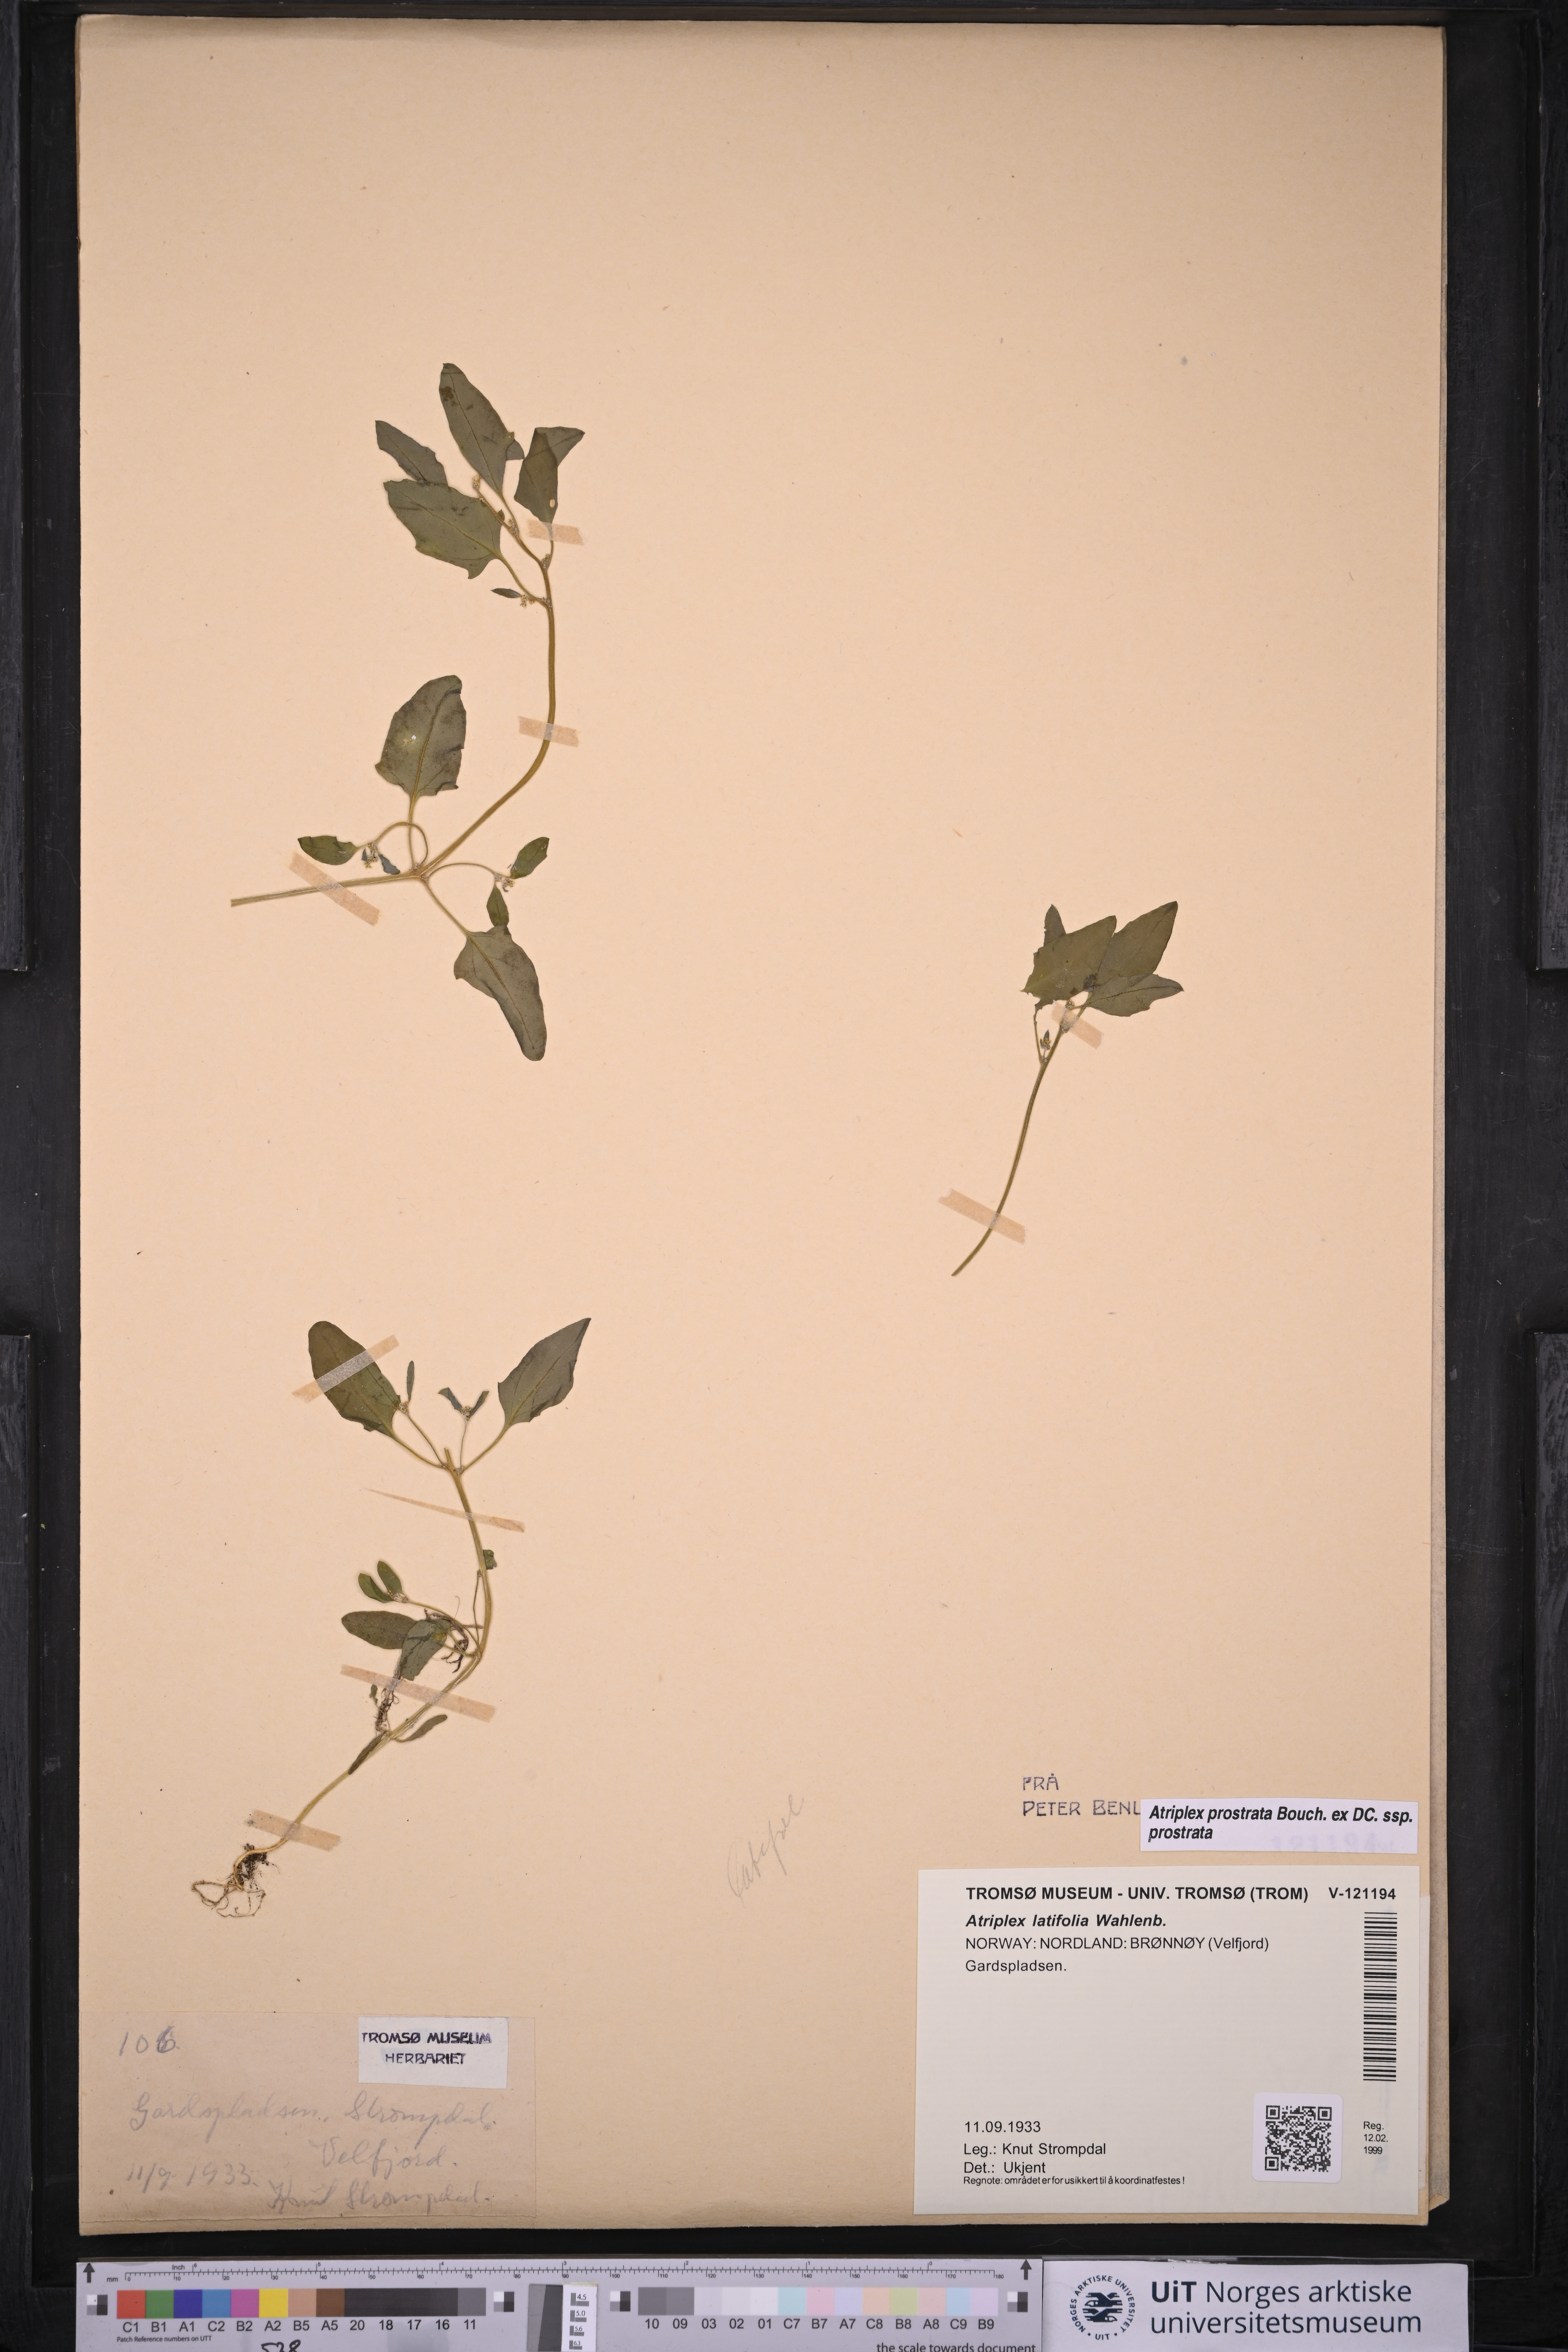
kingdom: Plantae
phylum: Tracheophyta
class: Magnoliopsida
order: Caryophyllales
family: Amaranthaceae
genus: Atriplex
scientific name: Atriplex prostrata
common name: Spear-leaved orache
